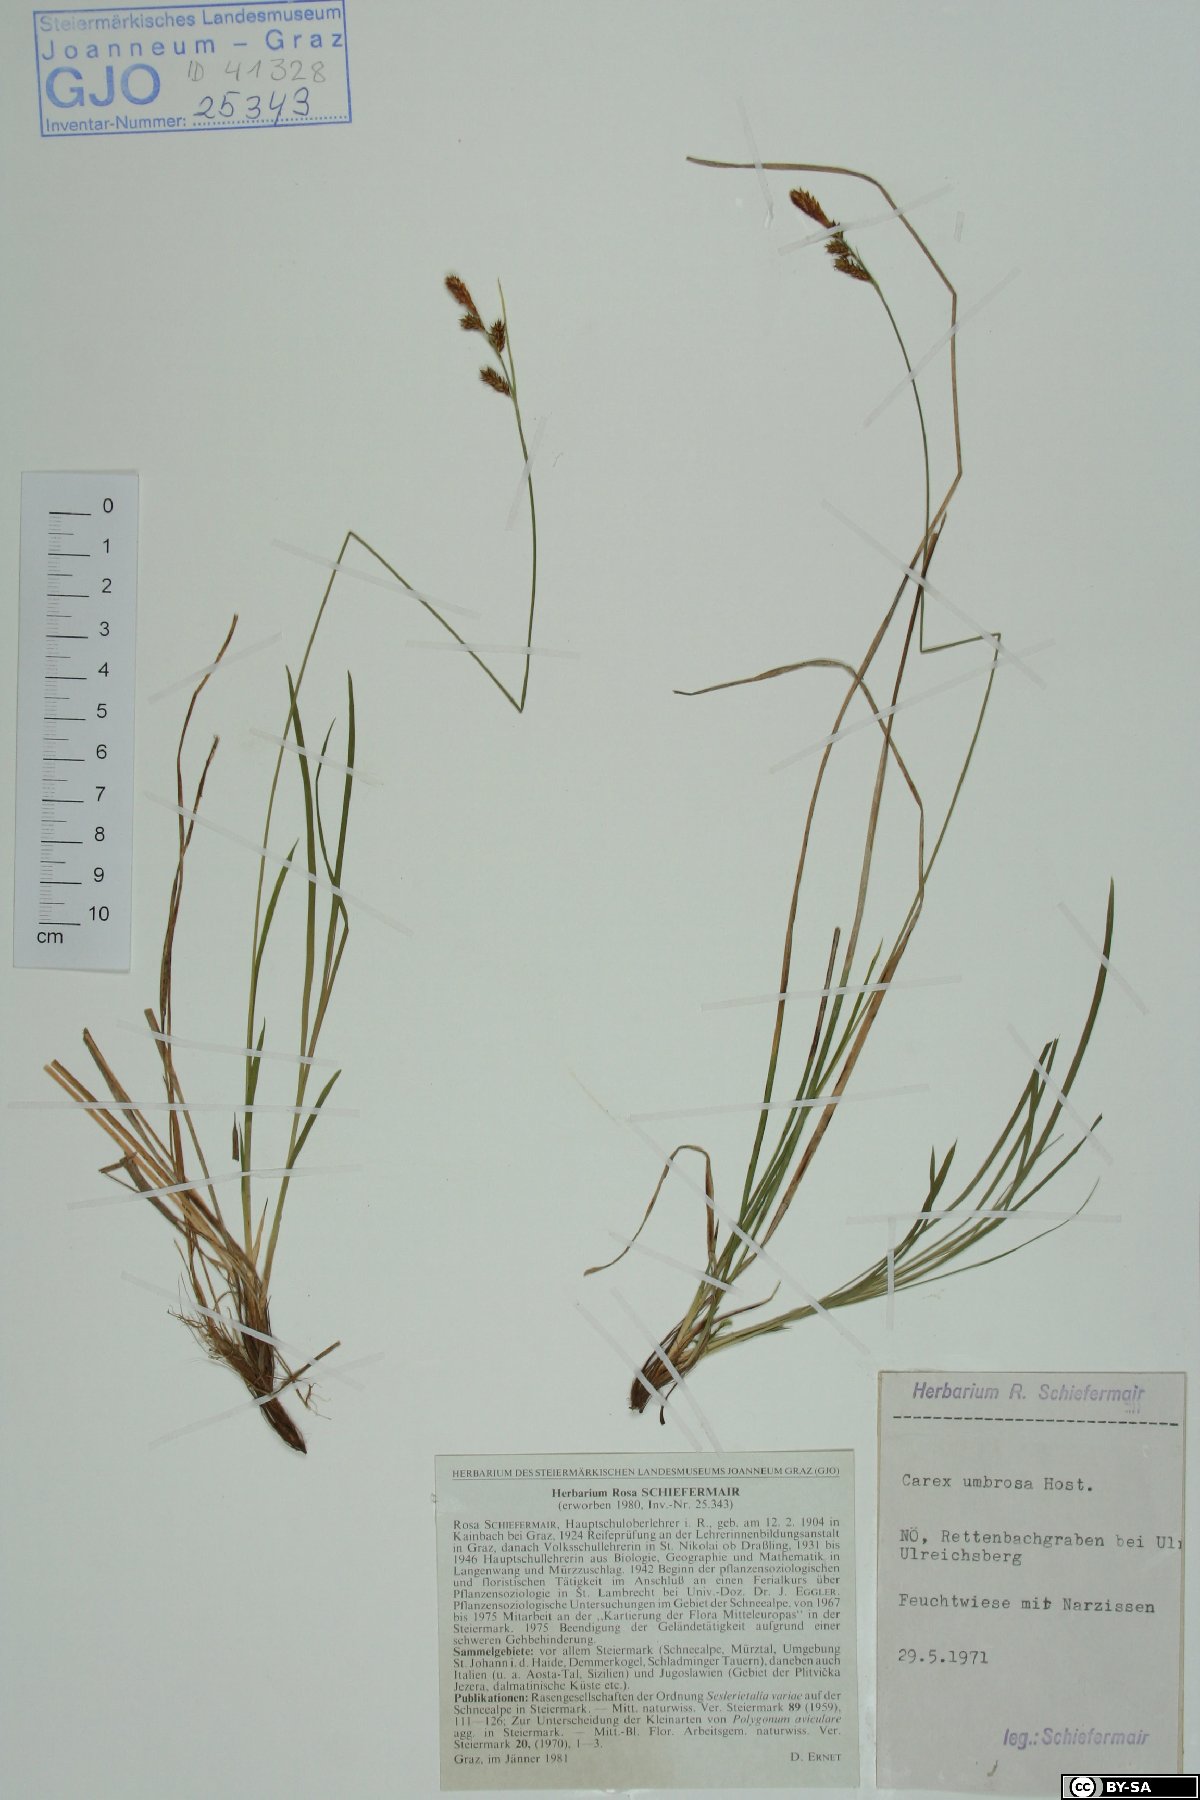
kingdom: Plantae
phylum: Tracheophyta
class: Liliopsida
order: Poales
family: Cyperaceae
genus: Carex
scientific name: Carex umbrosa
